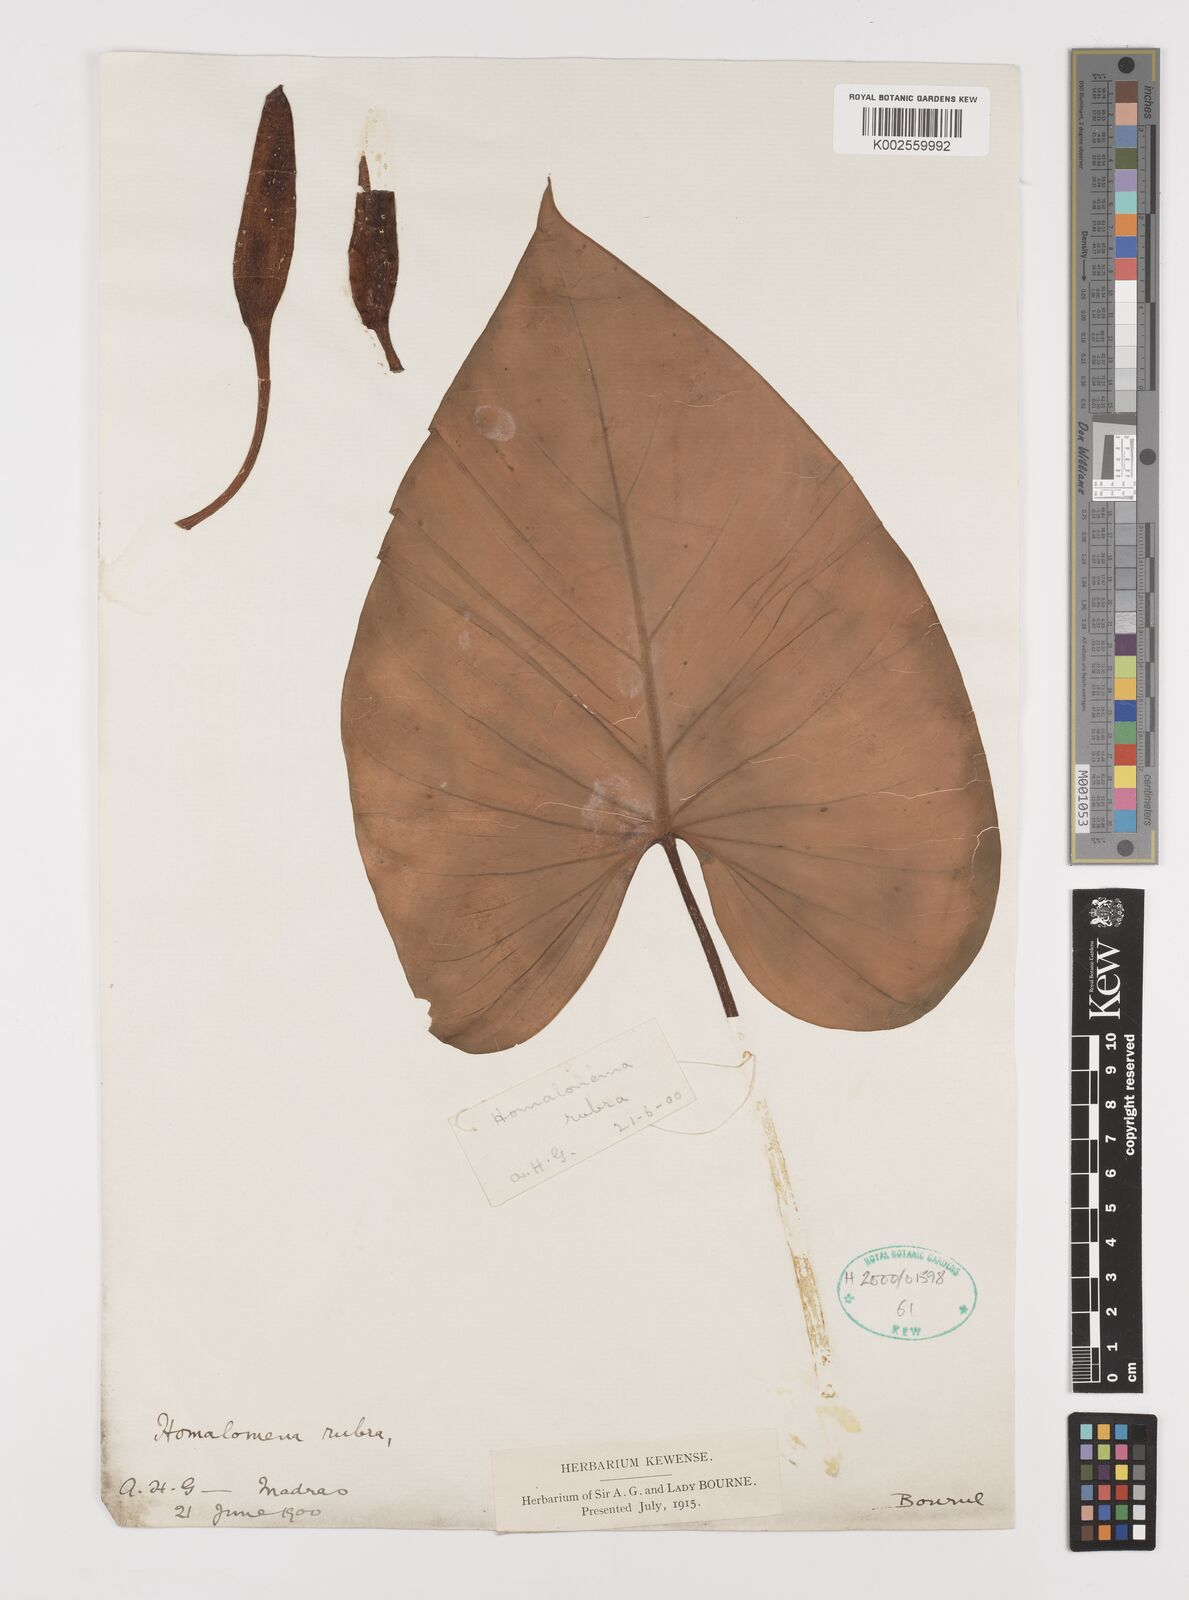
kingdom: Plantae
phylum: Tracheophyta
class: Liliopsida
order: Alismatales
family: Araceae
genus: Homalomena
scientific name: Homalomena pendula
